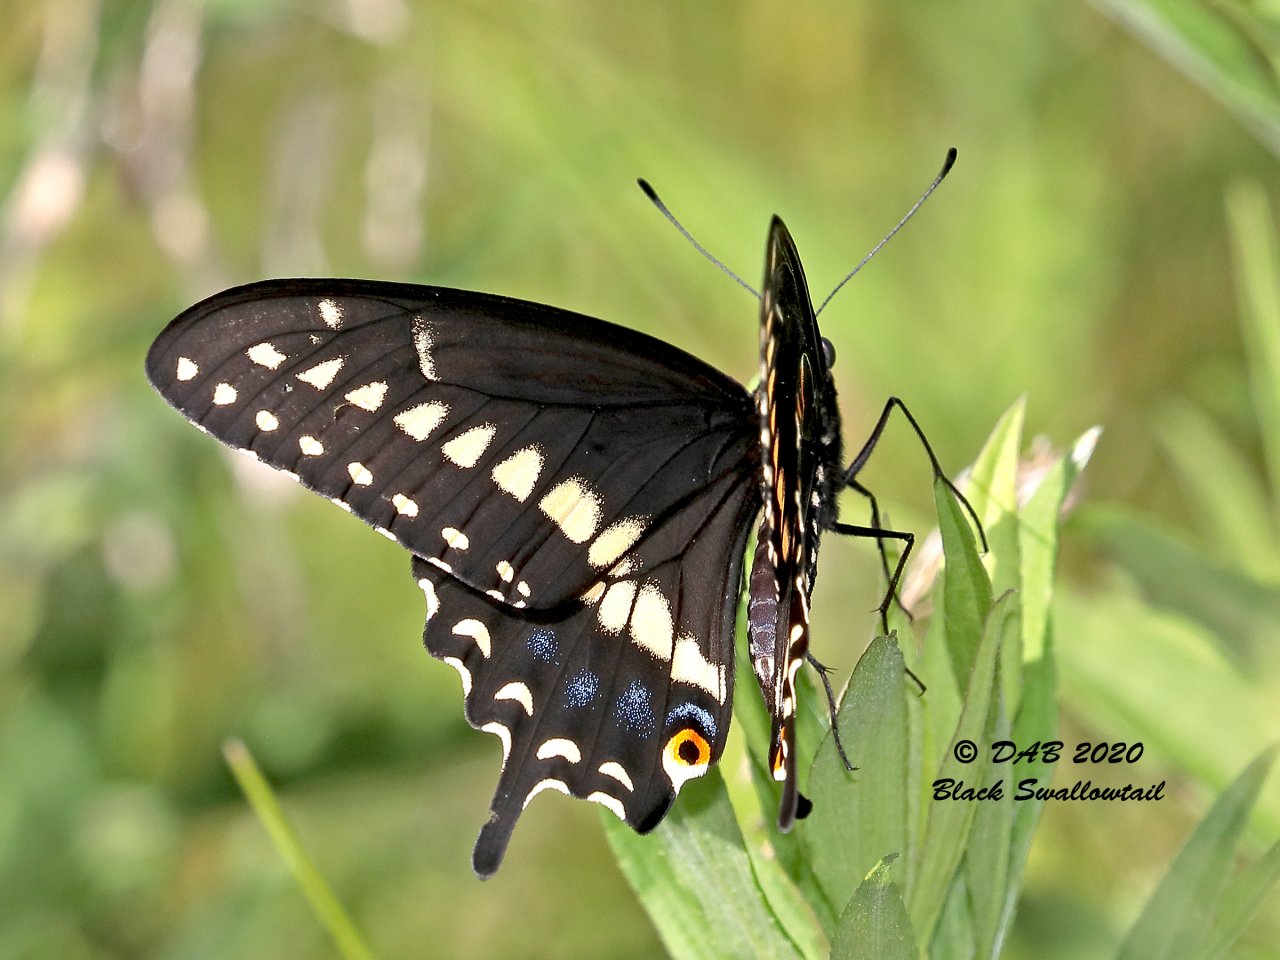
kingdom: Animalia
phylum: Arthropoda
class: Insecta
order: Lepidoptera
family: Papilionidae
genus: Papilio
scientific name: Papilio polyxenes
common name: Black Swallowtail
